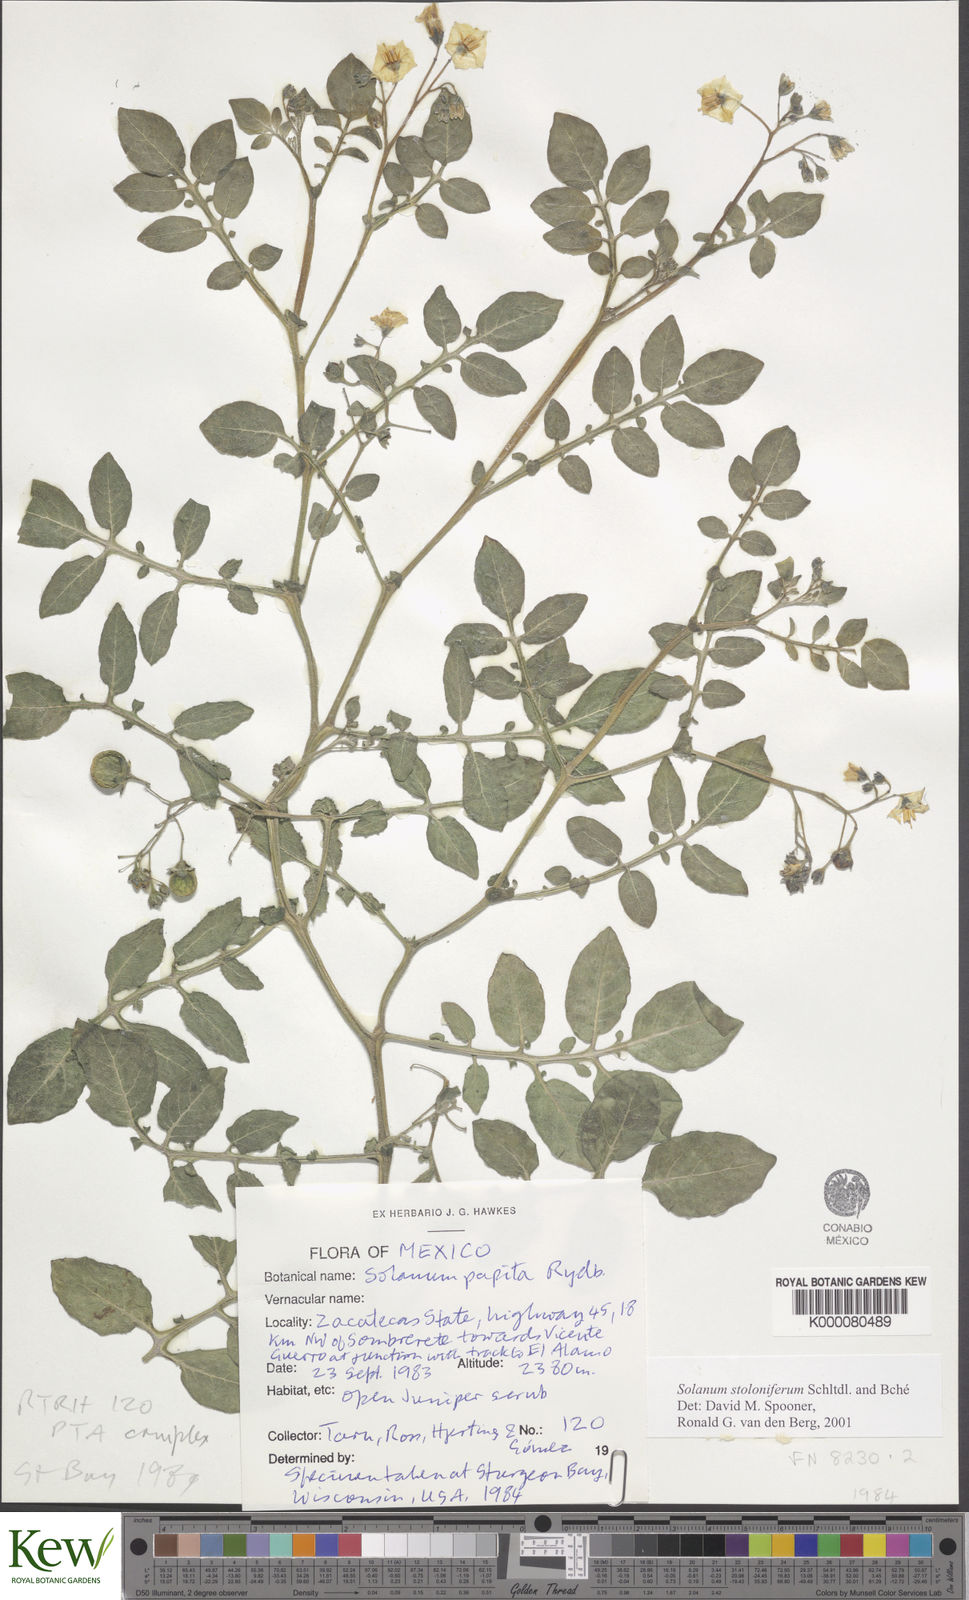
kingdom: Plantae
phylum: Tracheophyta
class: Magnoliopsida
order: Solanales
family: Solanaceae
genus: Solanum
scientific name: Solanum stoloniferum
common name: Fendler's nighshade
